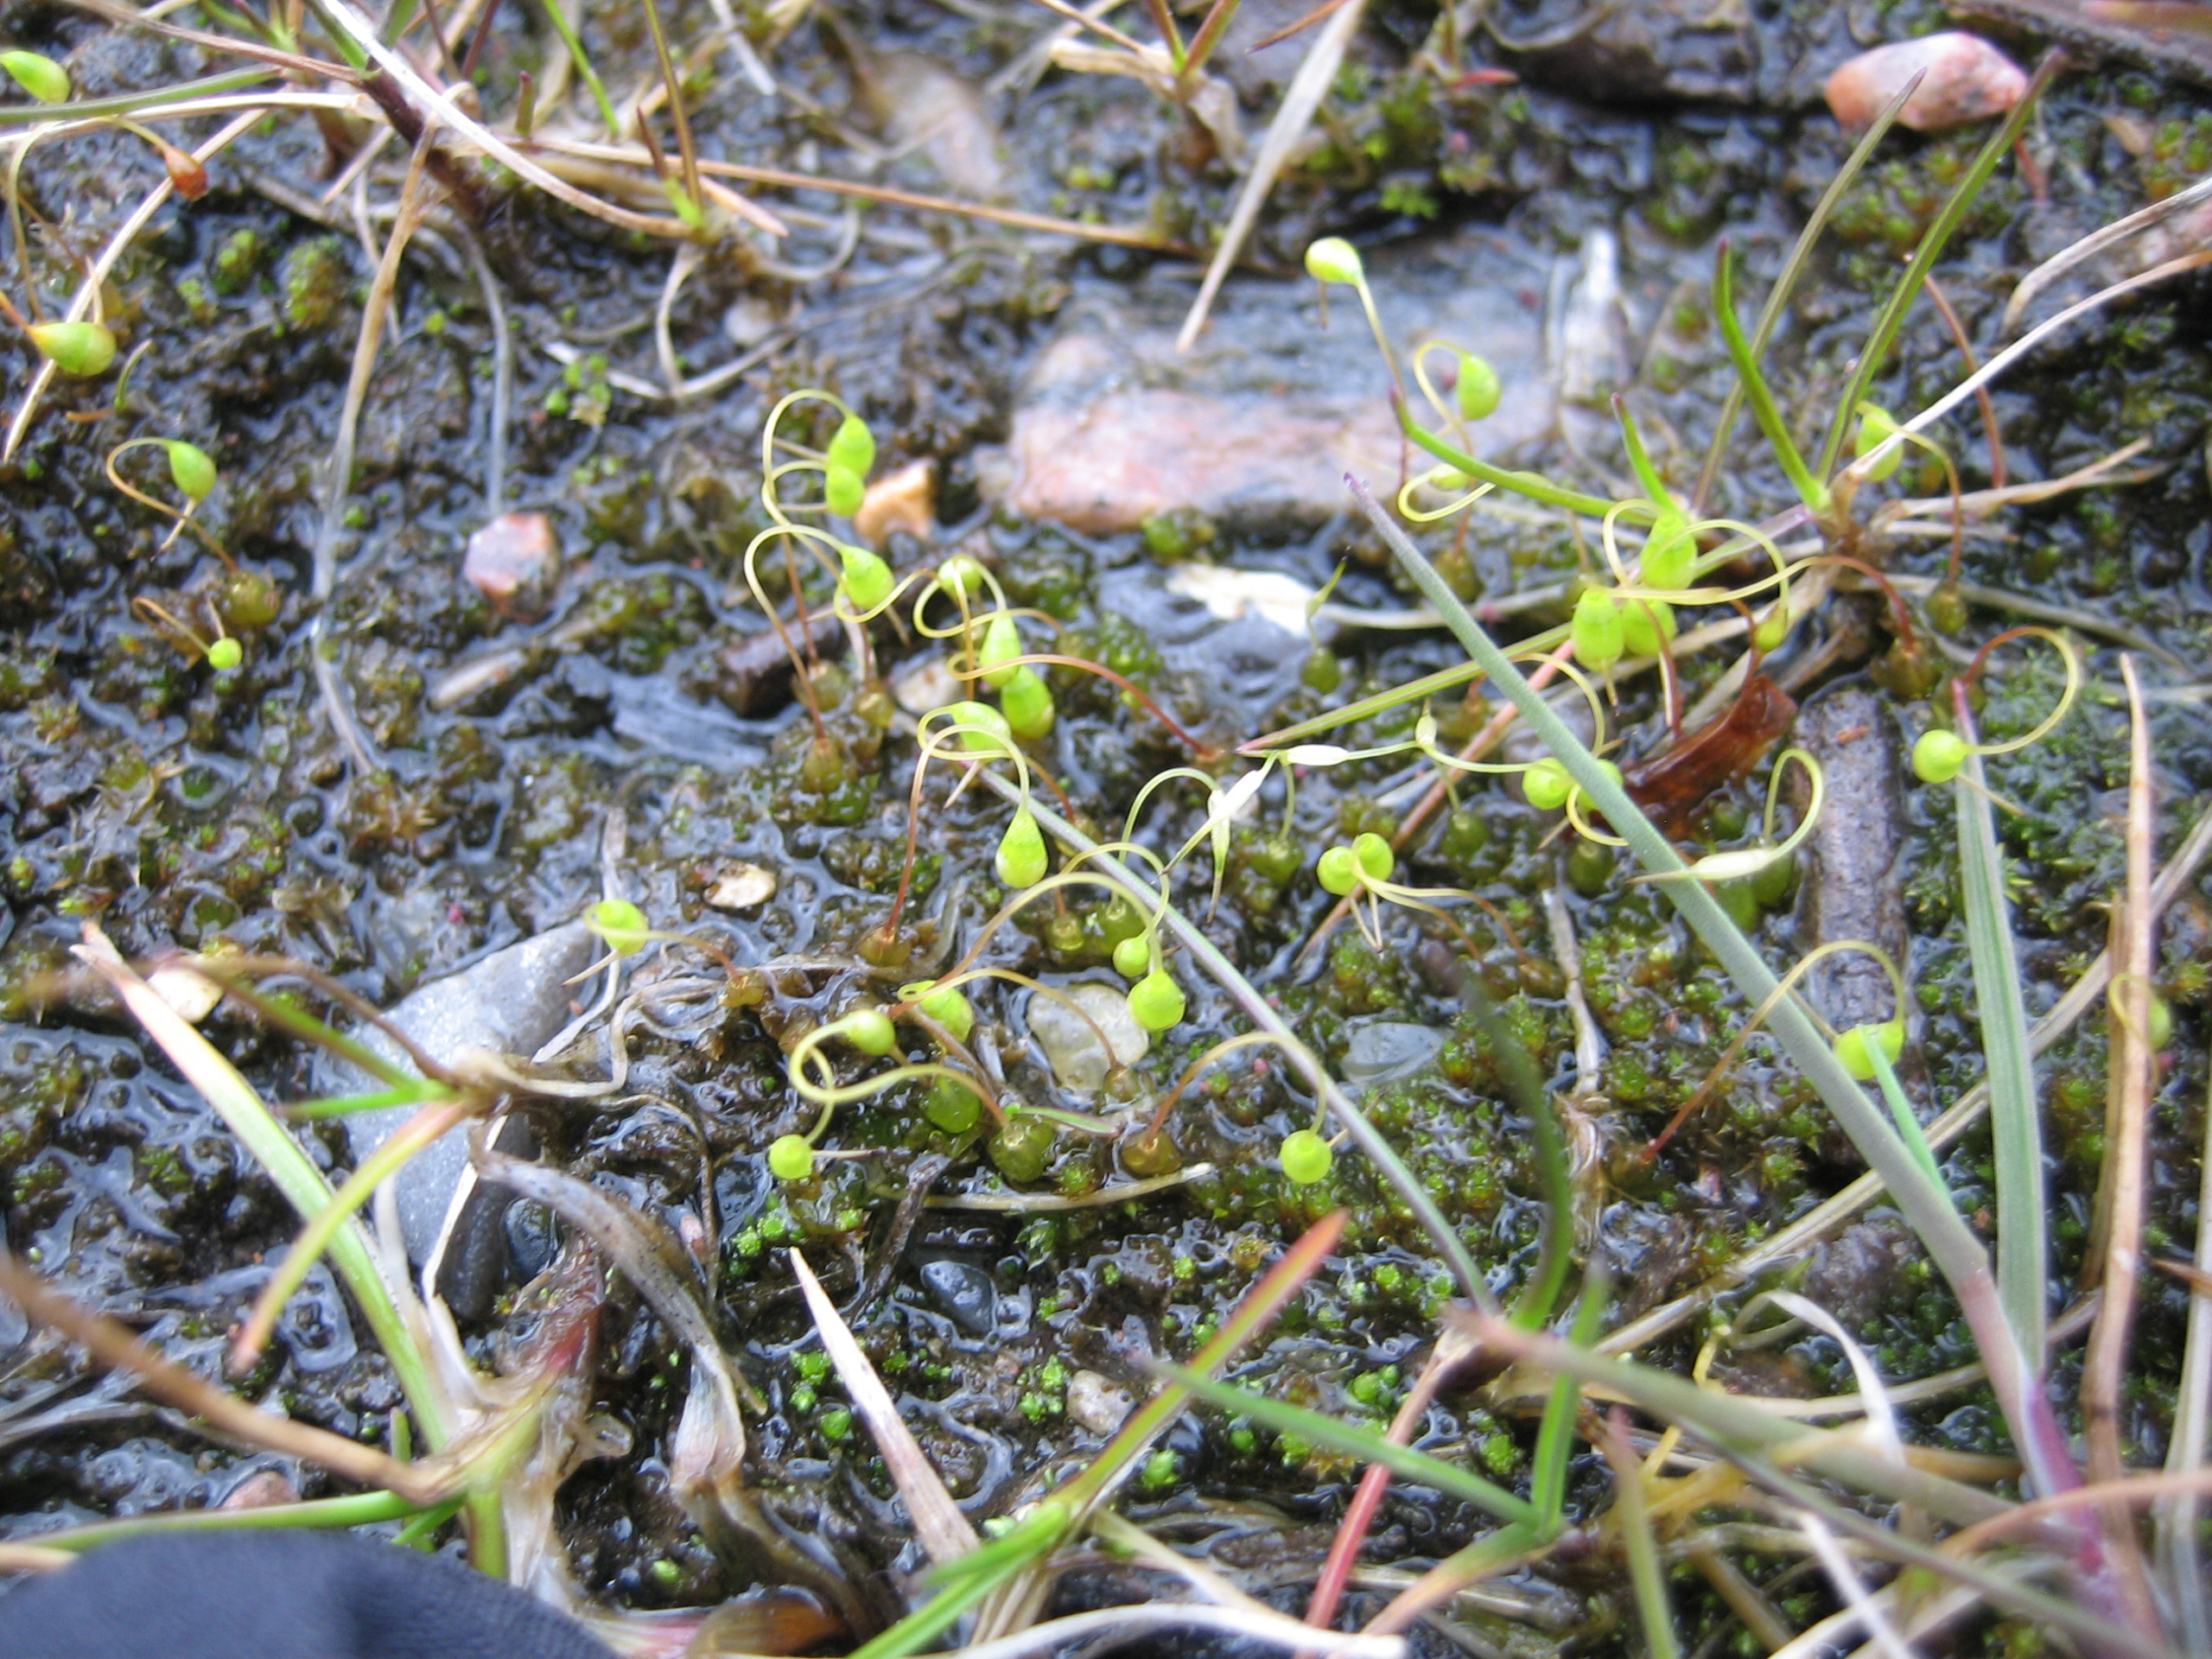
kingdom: Plantae
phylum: Bryophyta
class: Bryopsida
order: Funariales
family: Funariaceae
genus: Funaria
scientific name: Funaria hygrometrica
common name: Almindelig snobørste
